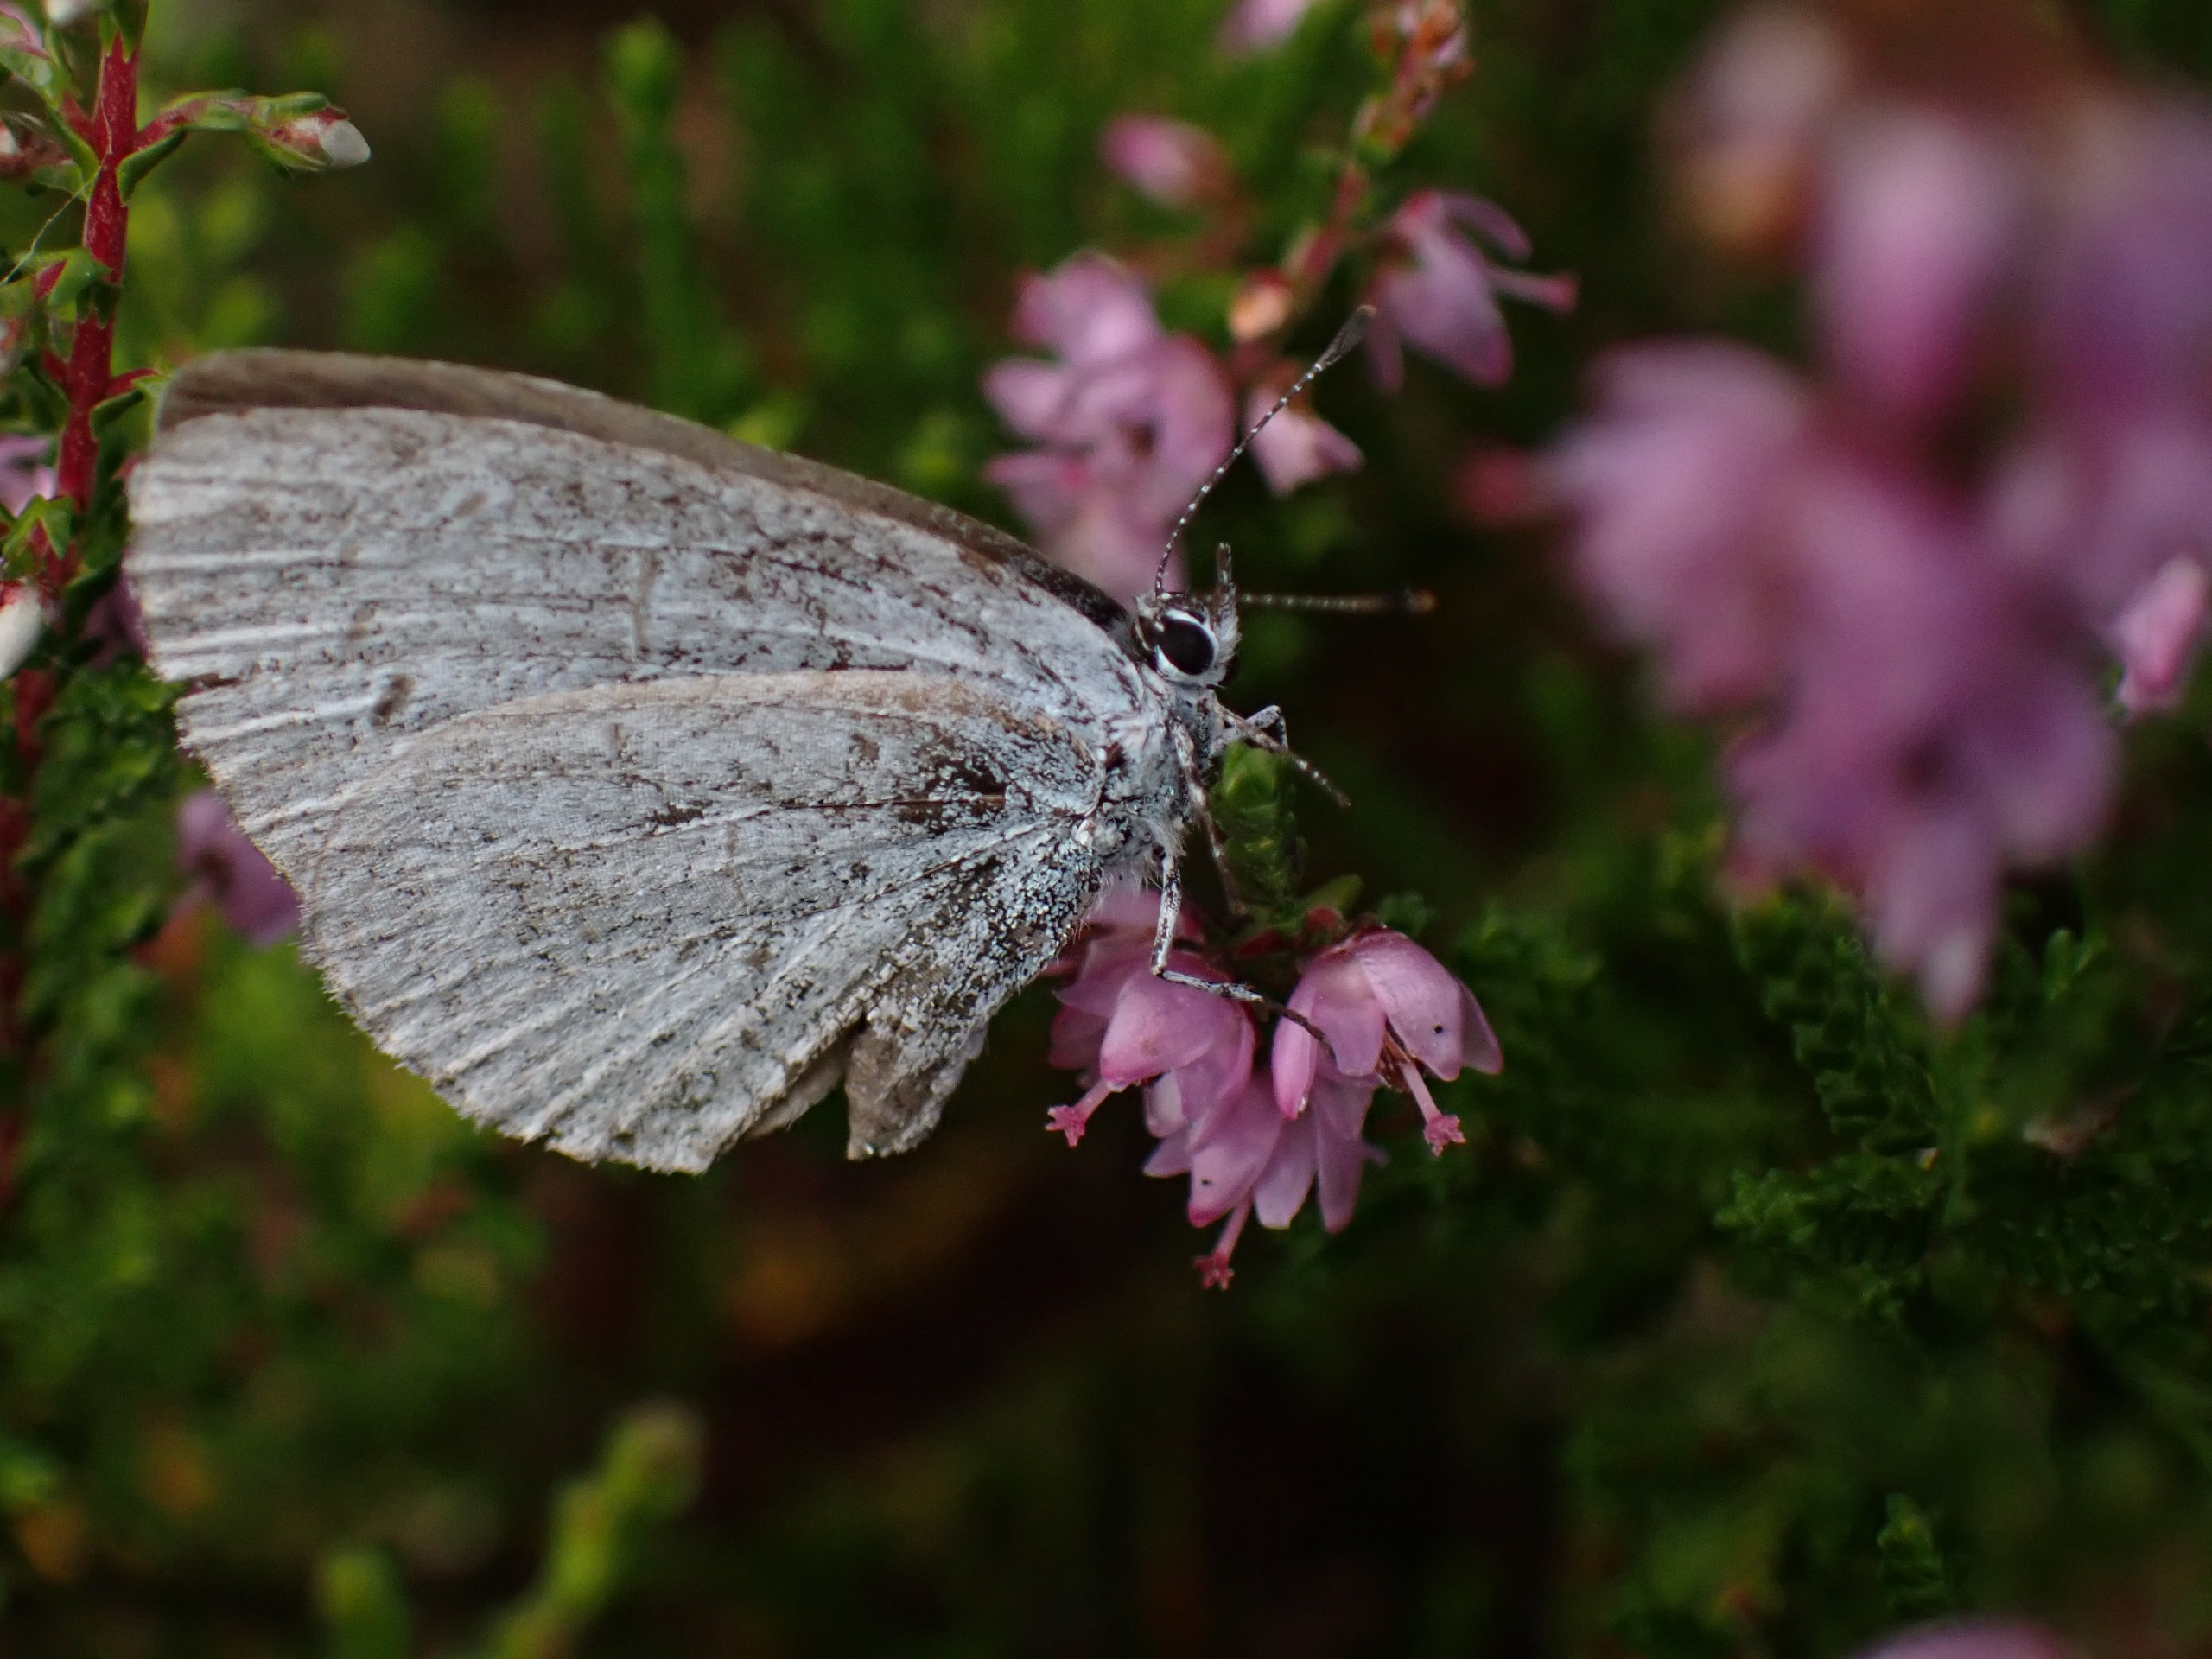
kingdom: Animalia
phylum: Arthropoda
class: Insecta
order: Lepidoptera
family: Lycaenidae
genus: Celastrina
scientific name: Celastrina argiolus
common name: Skovblåfugl
